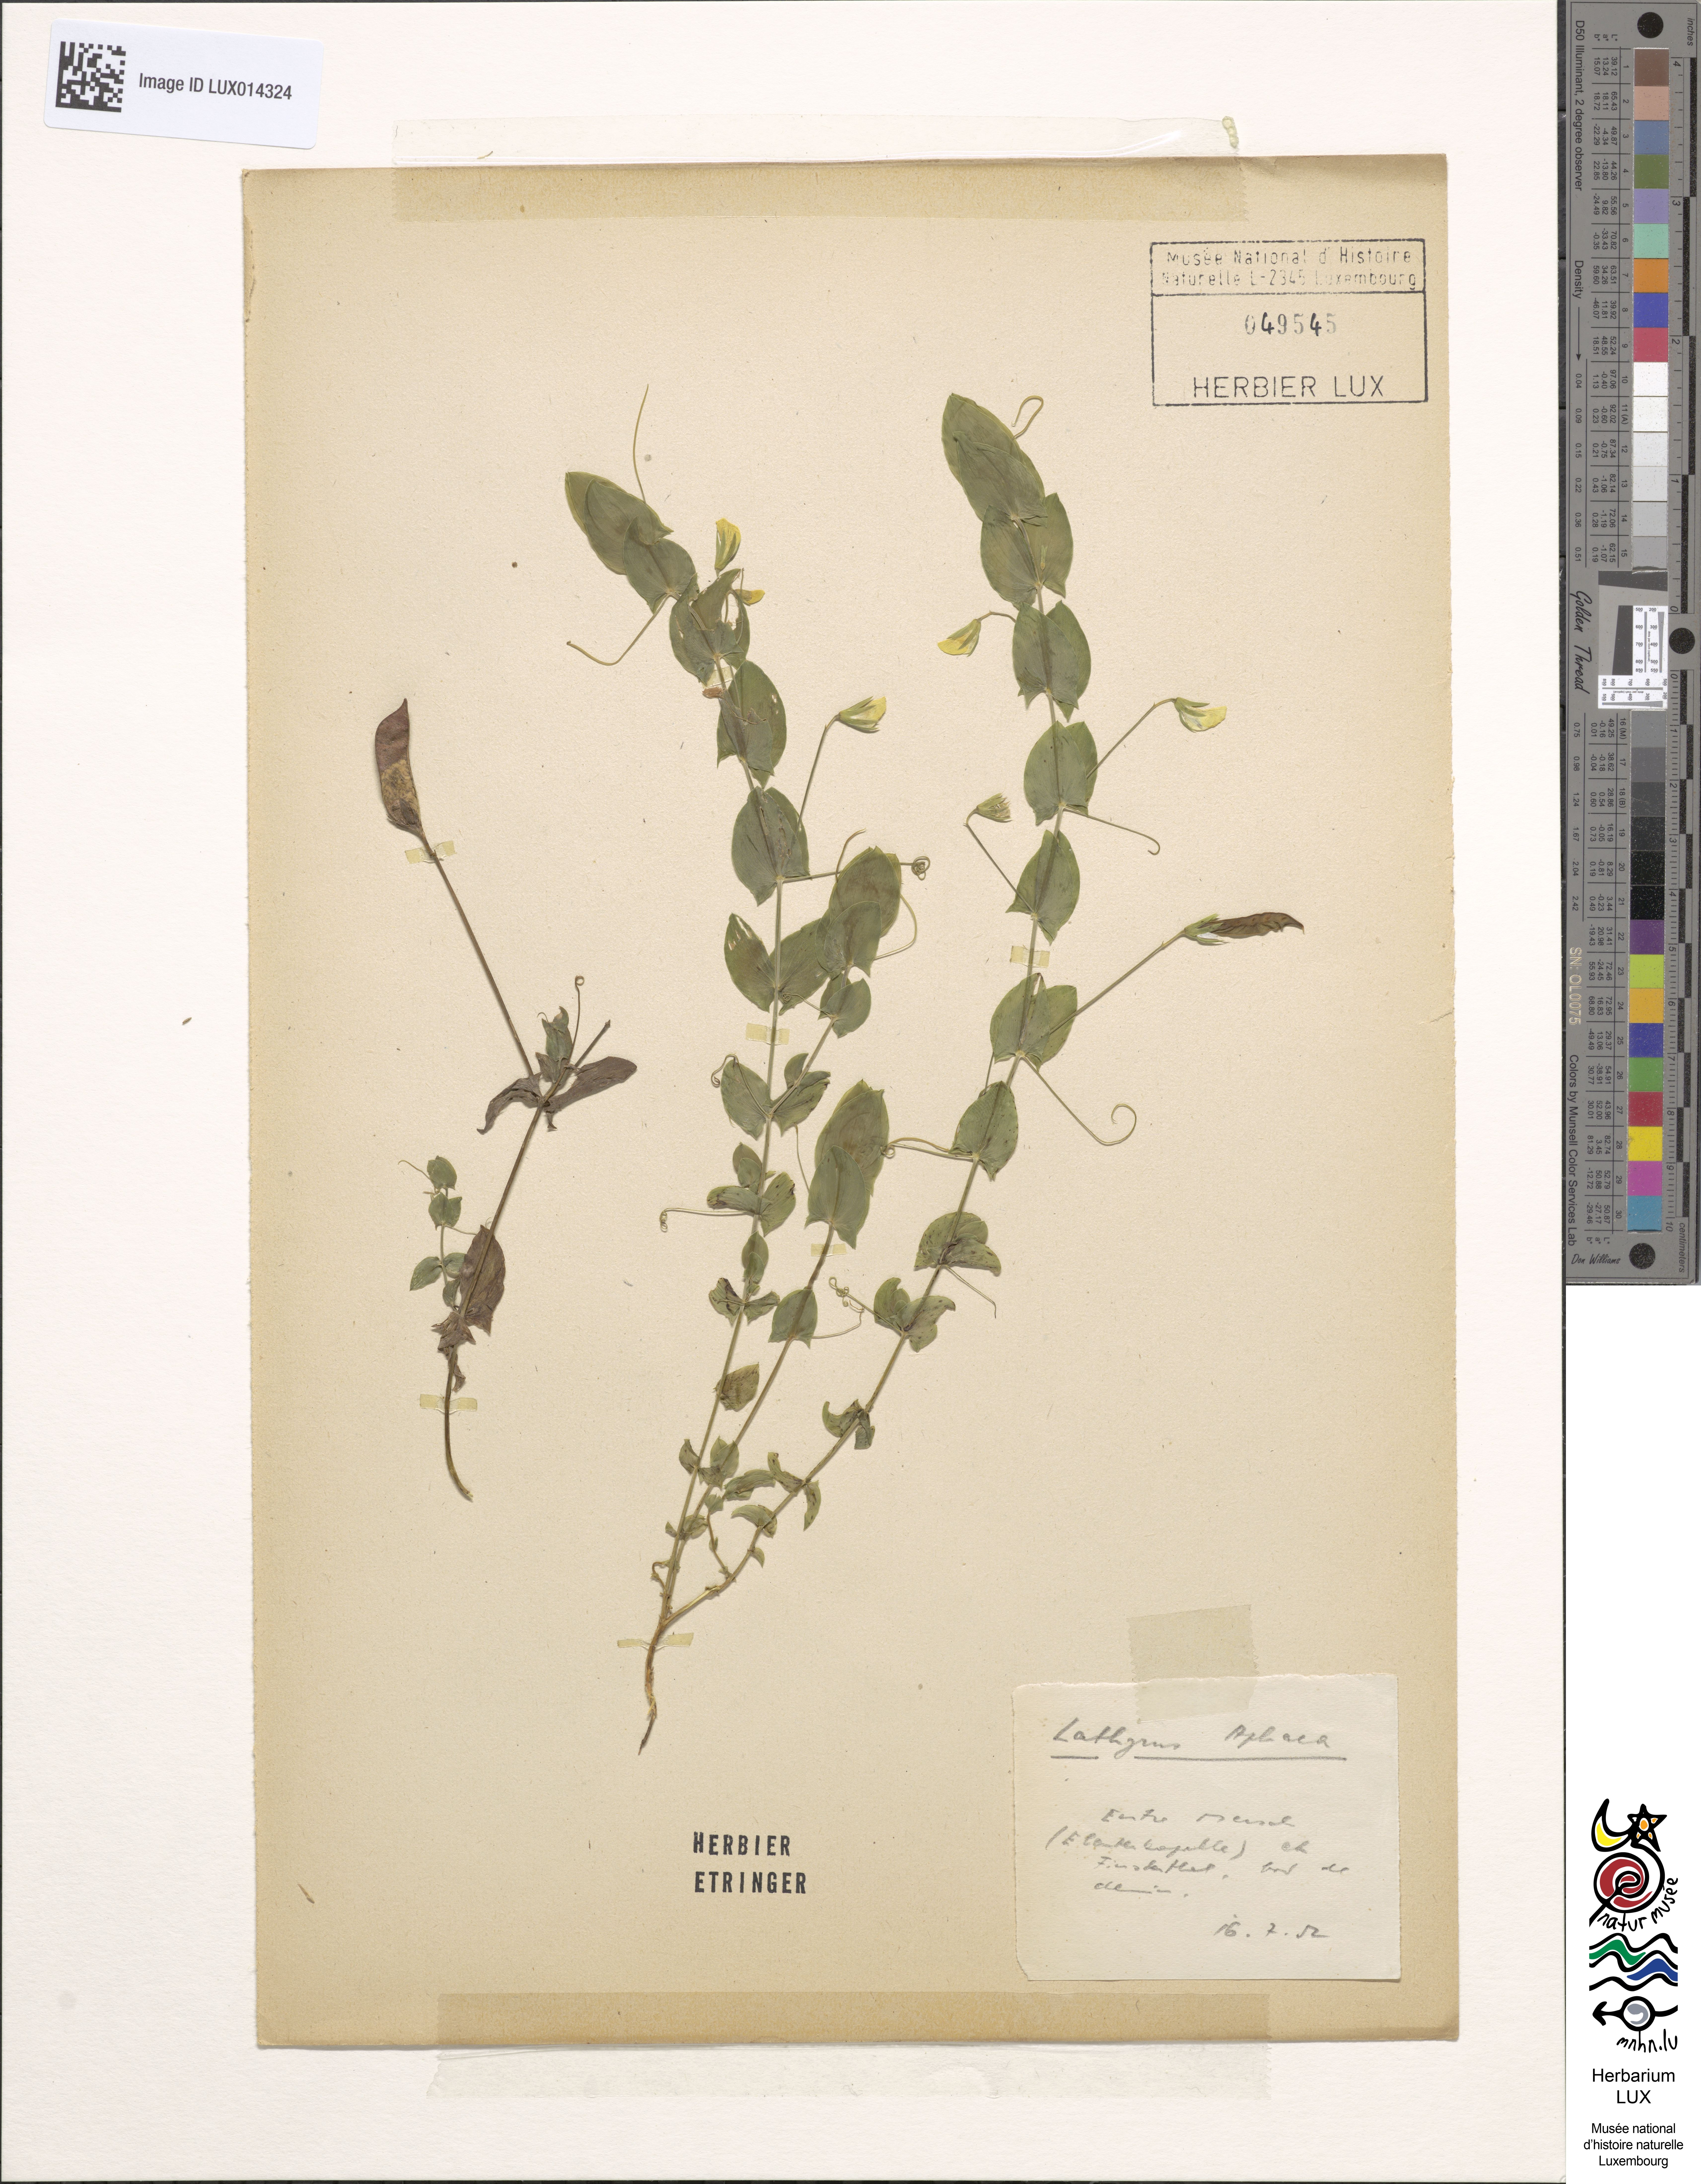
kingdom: Plantae
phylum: Tracheophyta
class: Magnoliopsida
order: Fabales
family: Fabaceae
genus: Lathyrus
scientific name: Lathyrus aphaca
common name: Yellow vetchling
